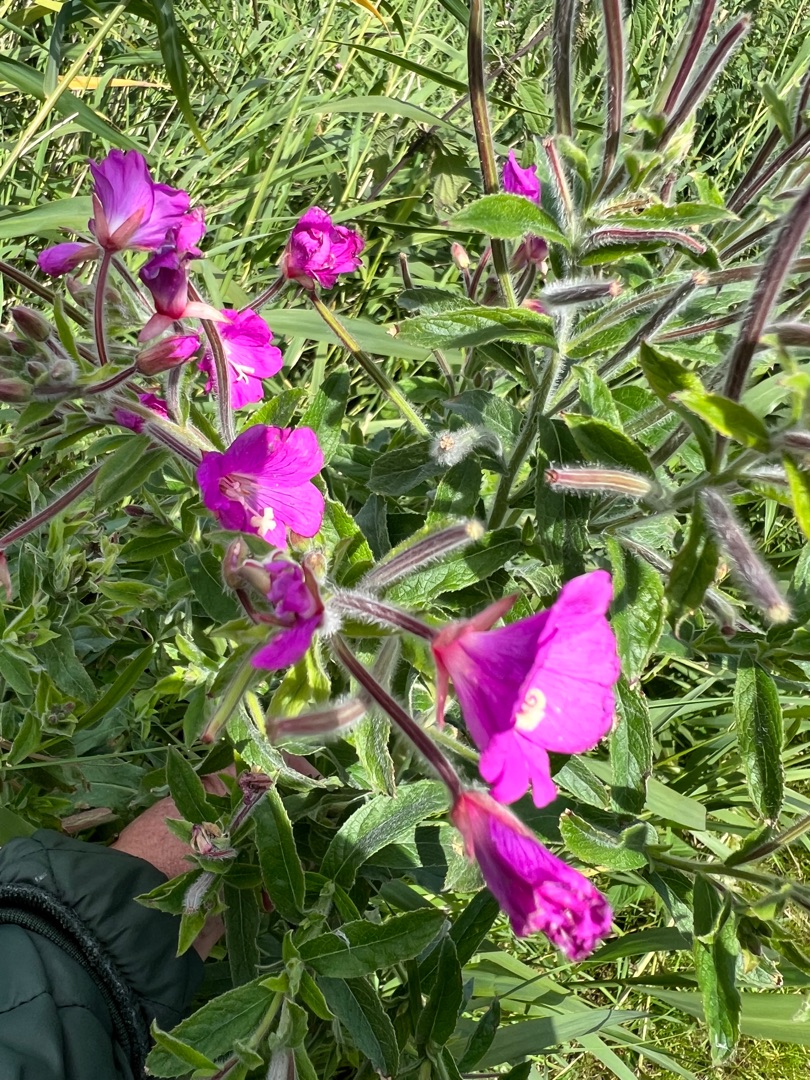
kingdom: Plantae
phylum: Tracheophyta
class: Magnoliopsida
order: Myrtales
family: Onagraceae
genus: Epilobium
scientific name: Epilobium hirsutum
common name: Lådden dueurt
